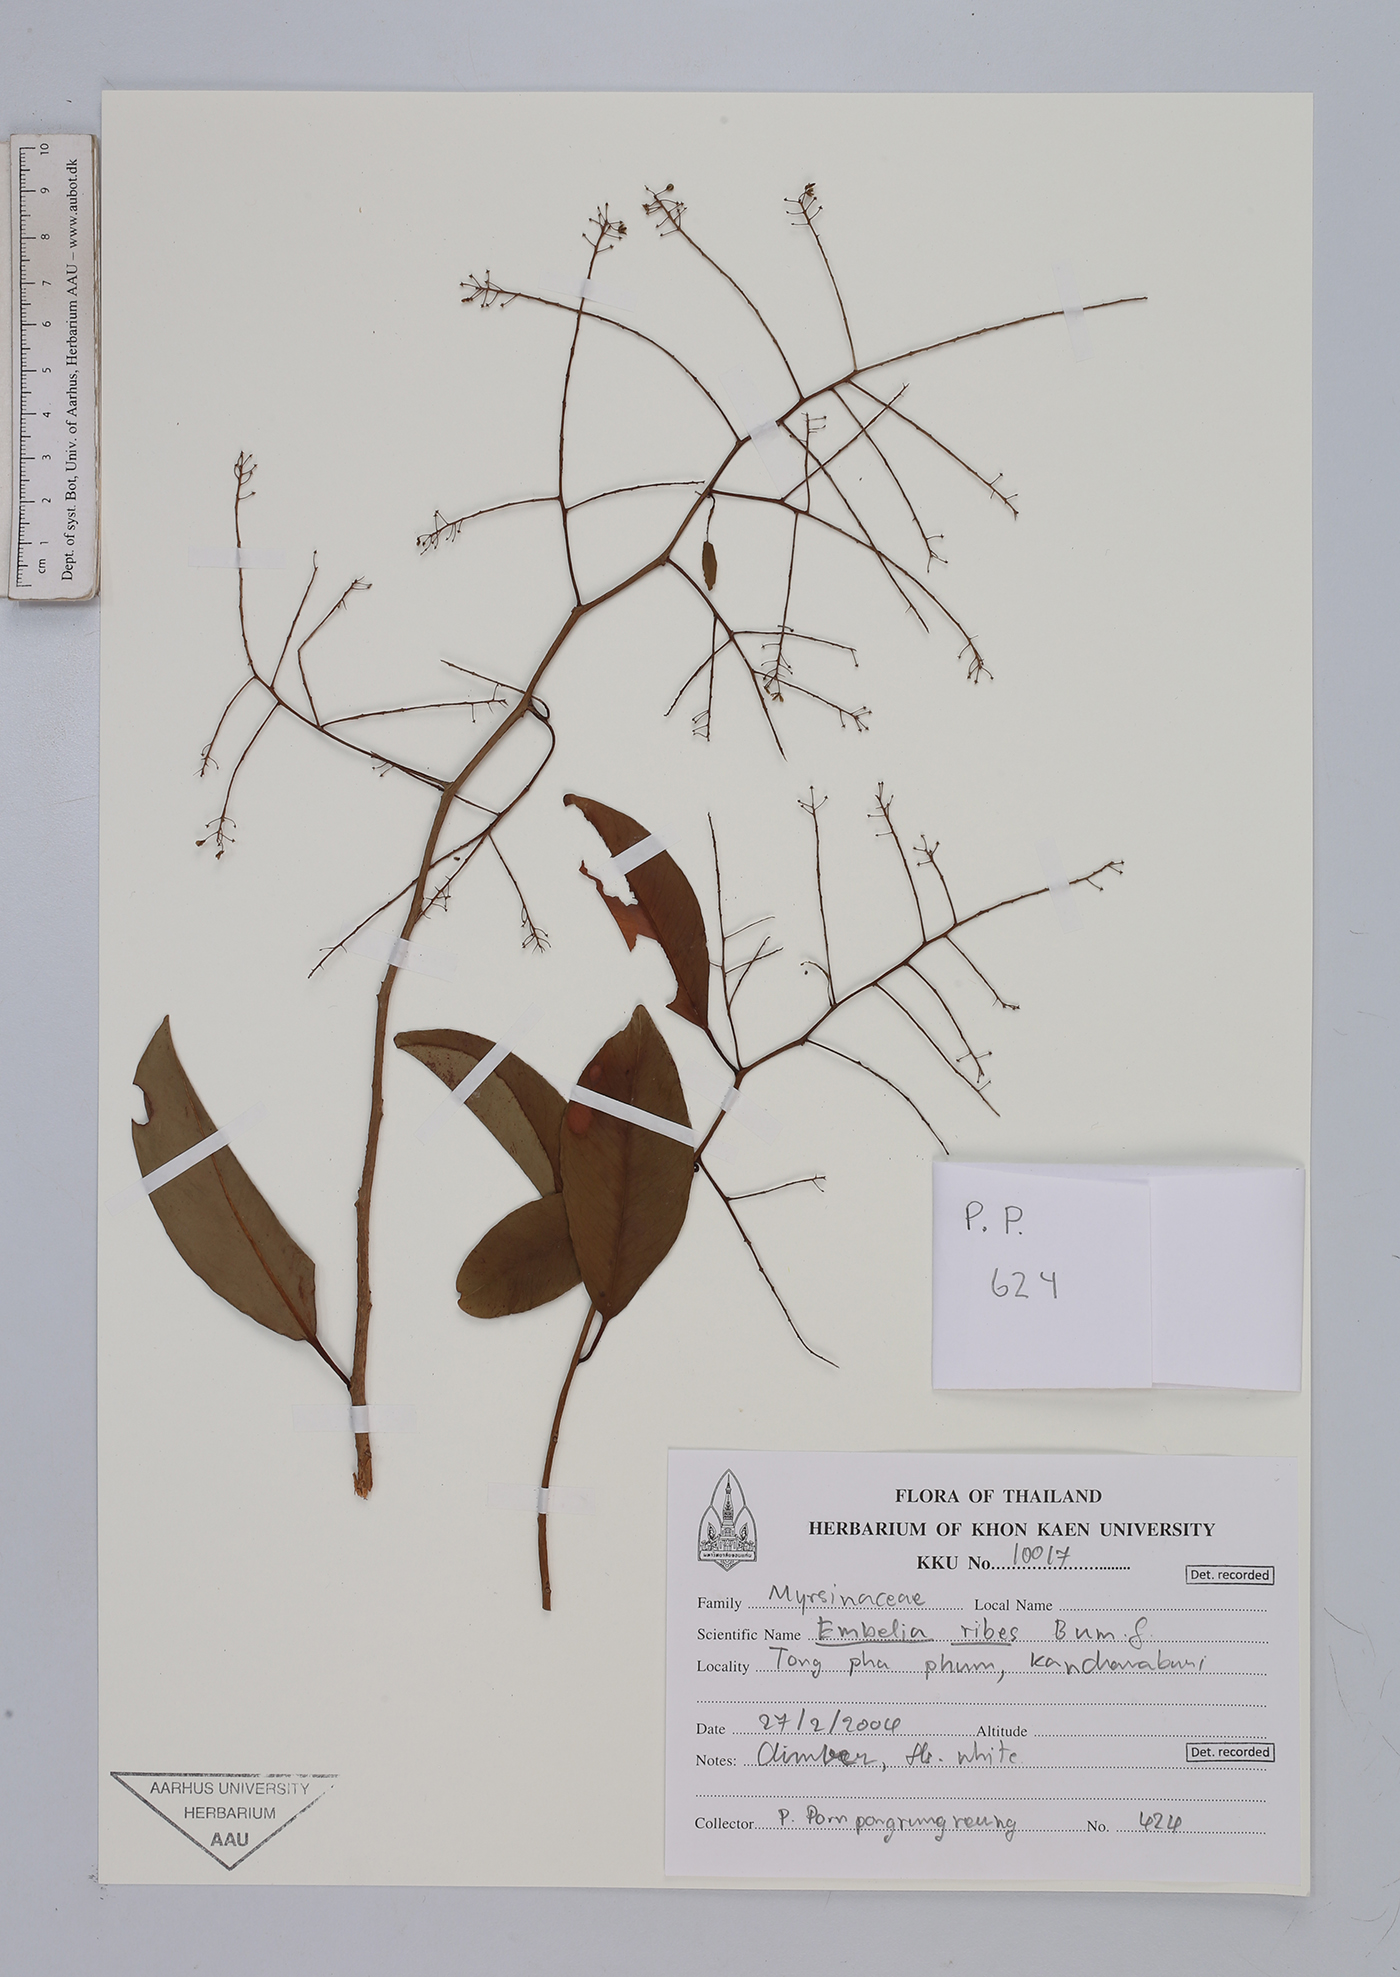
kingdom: Plantae
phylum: Tracheophyta
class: Magnoliopsida
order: Ericales
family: Primulaceae
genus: Embelia
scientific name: Embelia ribes
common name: Vidanga
